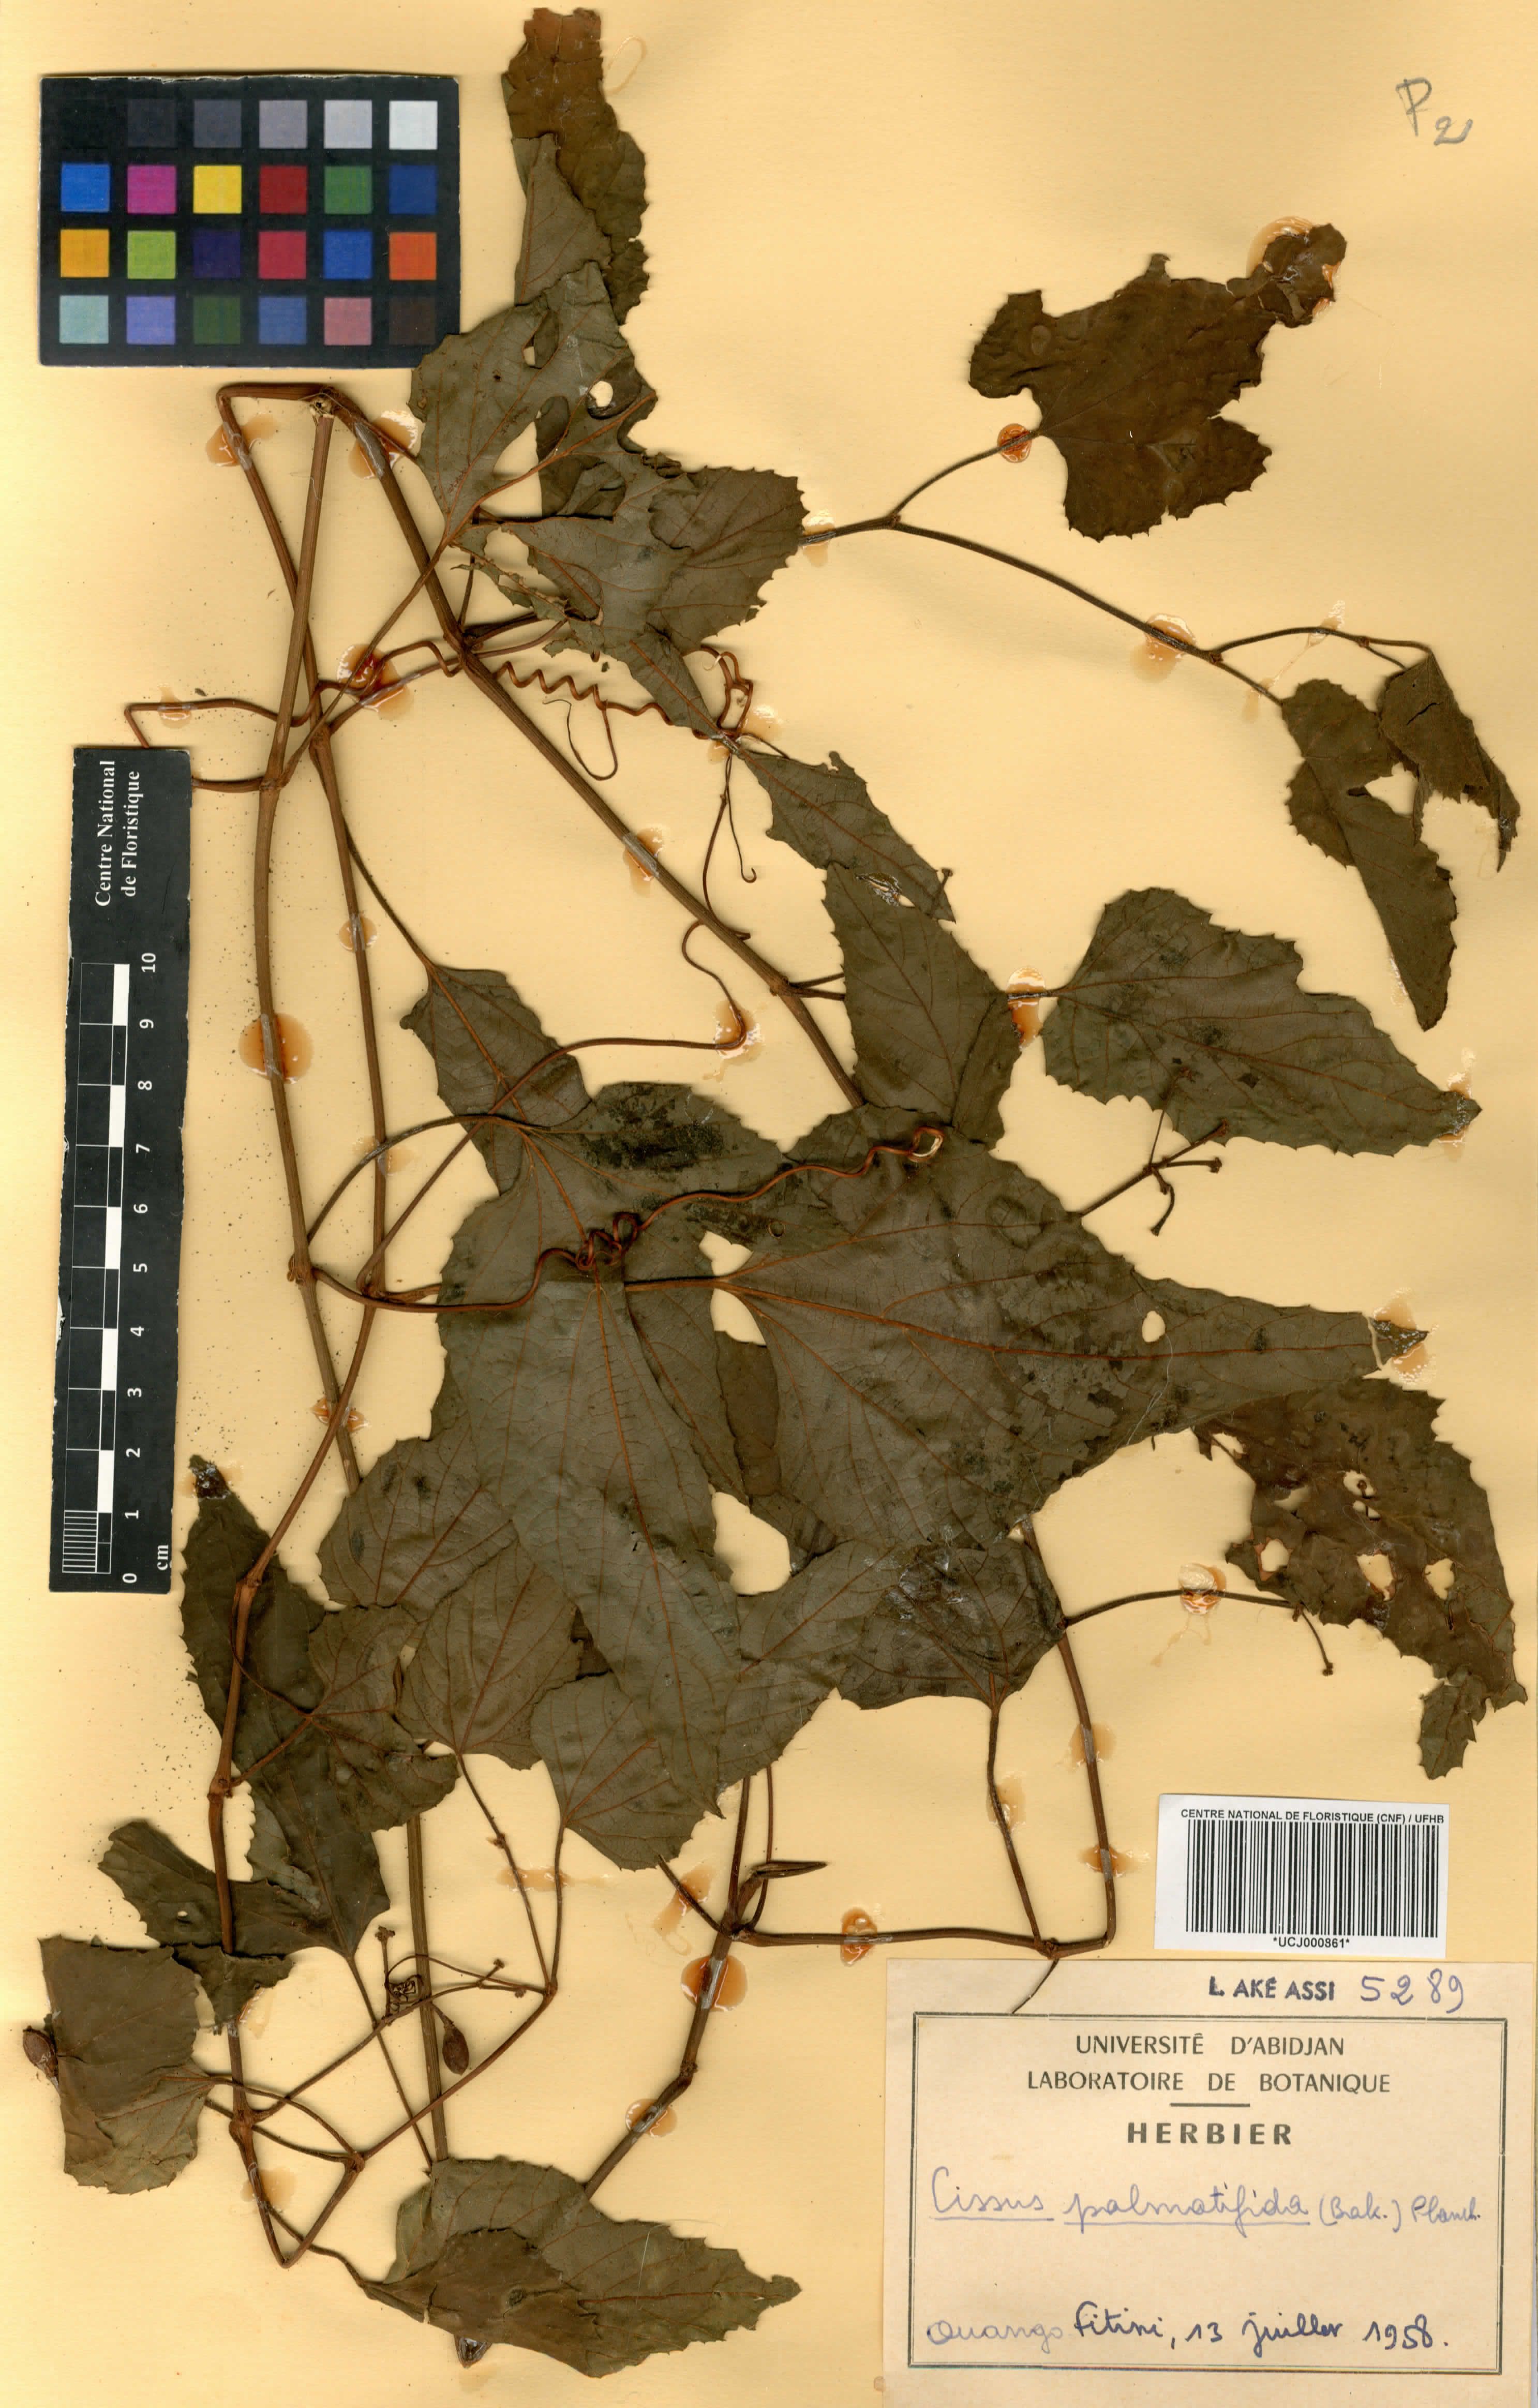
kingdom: Plantae
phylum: Tracheophyta
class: Magnoliopsida
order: Vitales
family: Vitaceae
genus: Cissus
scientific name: Cissus palmatifida
